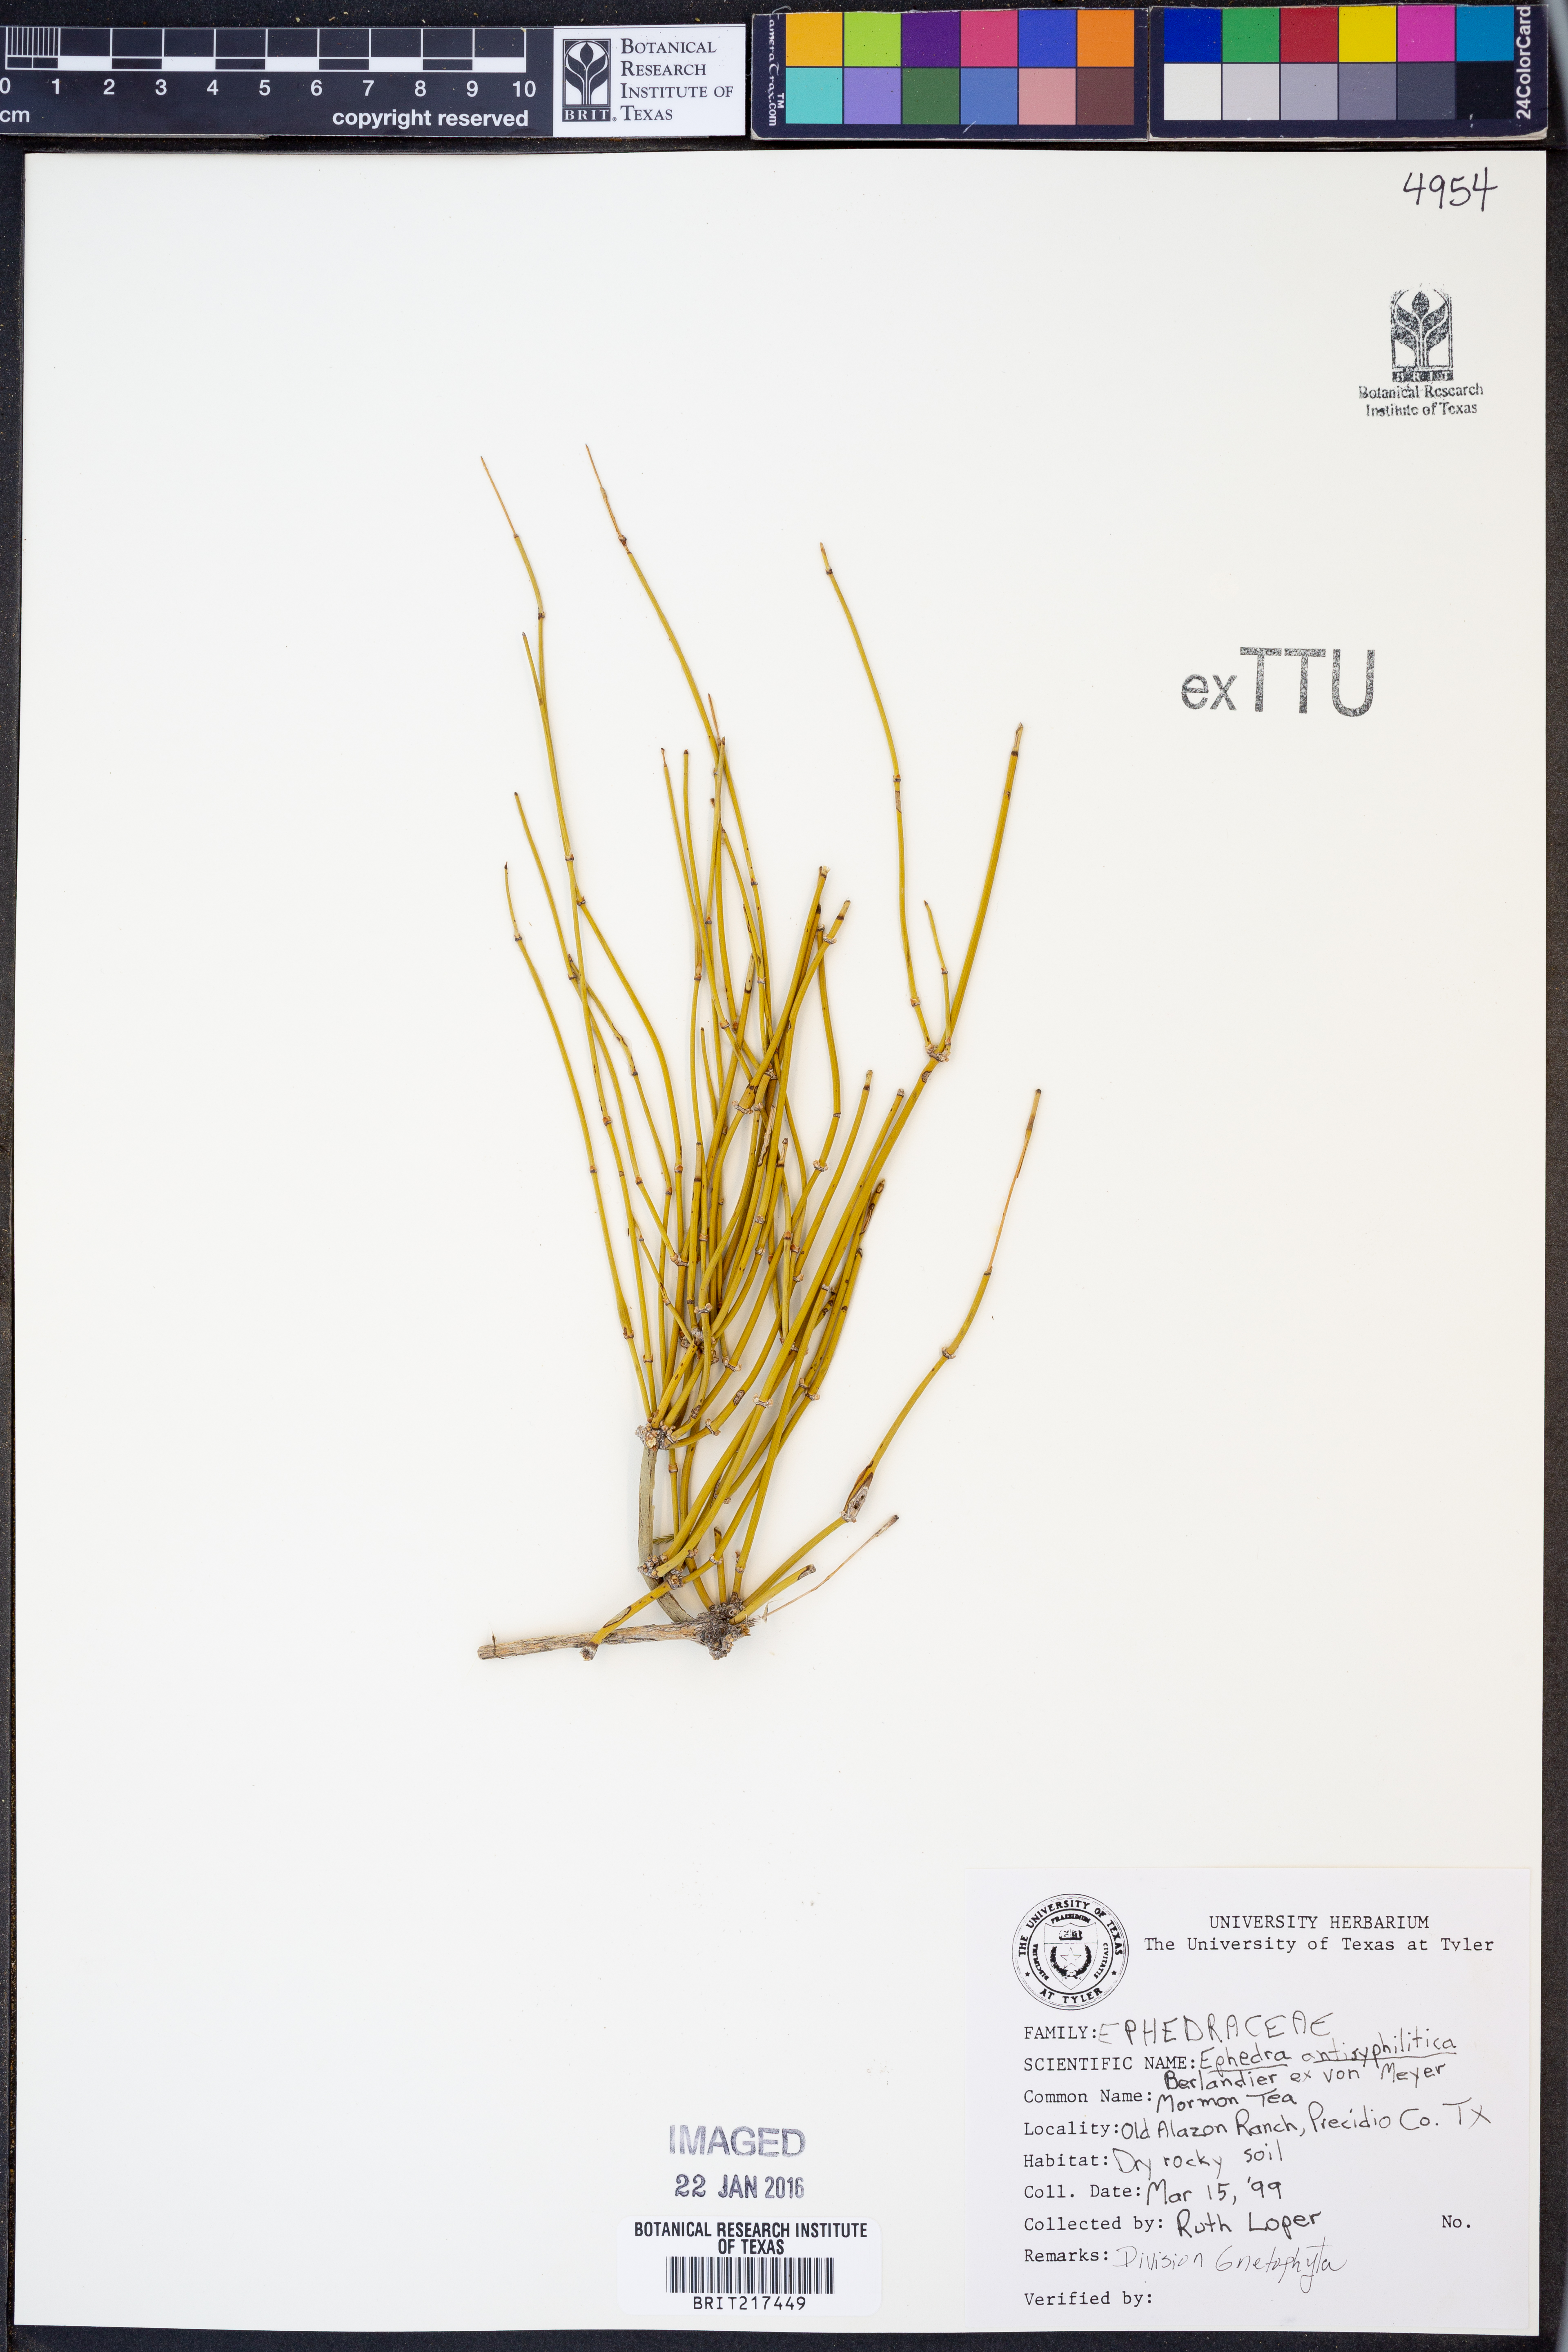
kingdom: Plantae
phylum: Tracheophyta
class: Gnetopsida
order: Ephedrales
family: Ephedraceae
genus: Ephedra
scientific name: Ephedra antisyphilitica
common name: Clipweed
